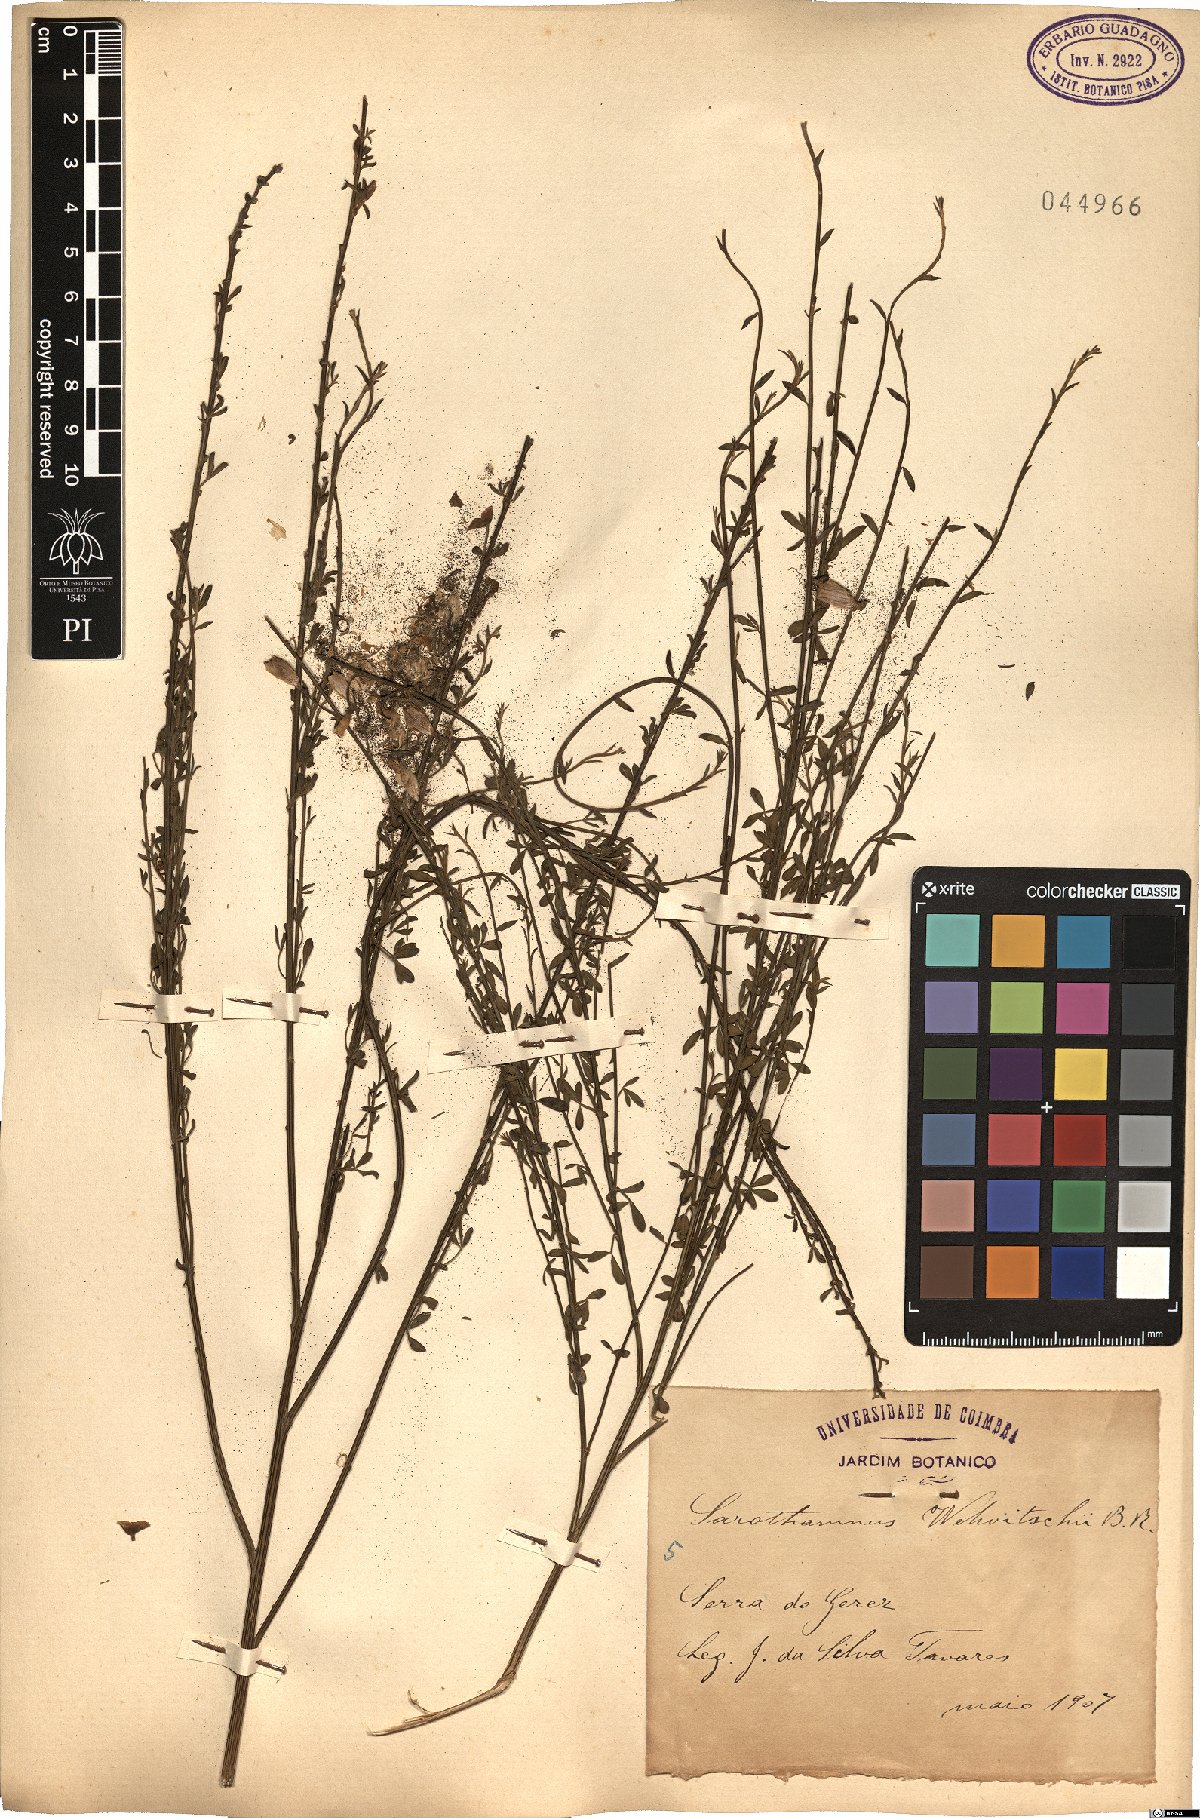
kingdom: Plantae
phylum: Tracheophyta
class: Magnoliopsida
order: Fabales
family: Fabaceae
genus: Cytisus
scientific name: Cytisus striatus
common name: Hairy-fruited broom
